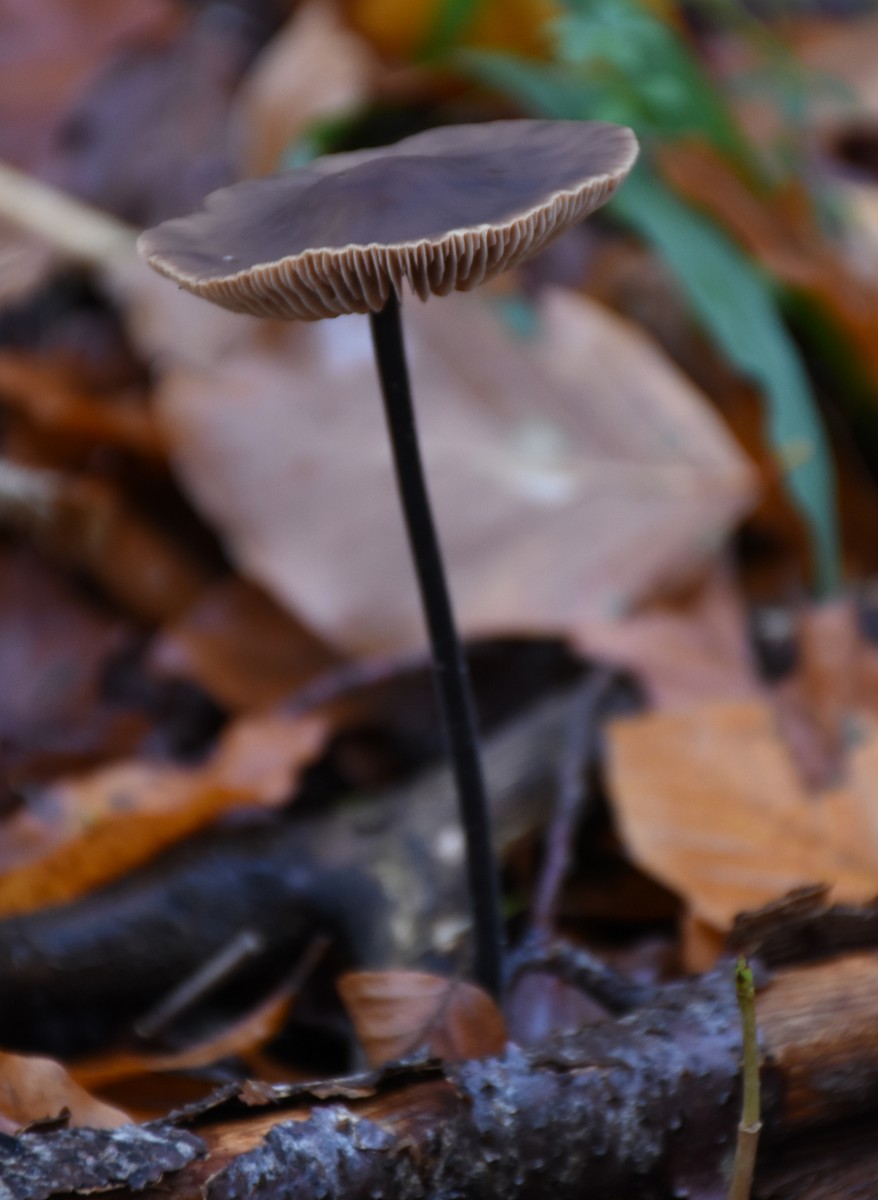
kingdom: Fungi
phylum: Basidiomycota
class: Agaricomycetes
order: Agaricales
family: Omphalotaceae
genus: Mycetinis
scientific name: Mycetinis alliaceus
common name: stor løghat
